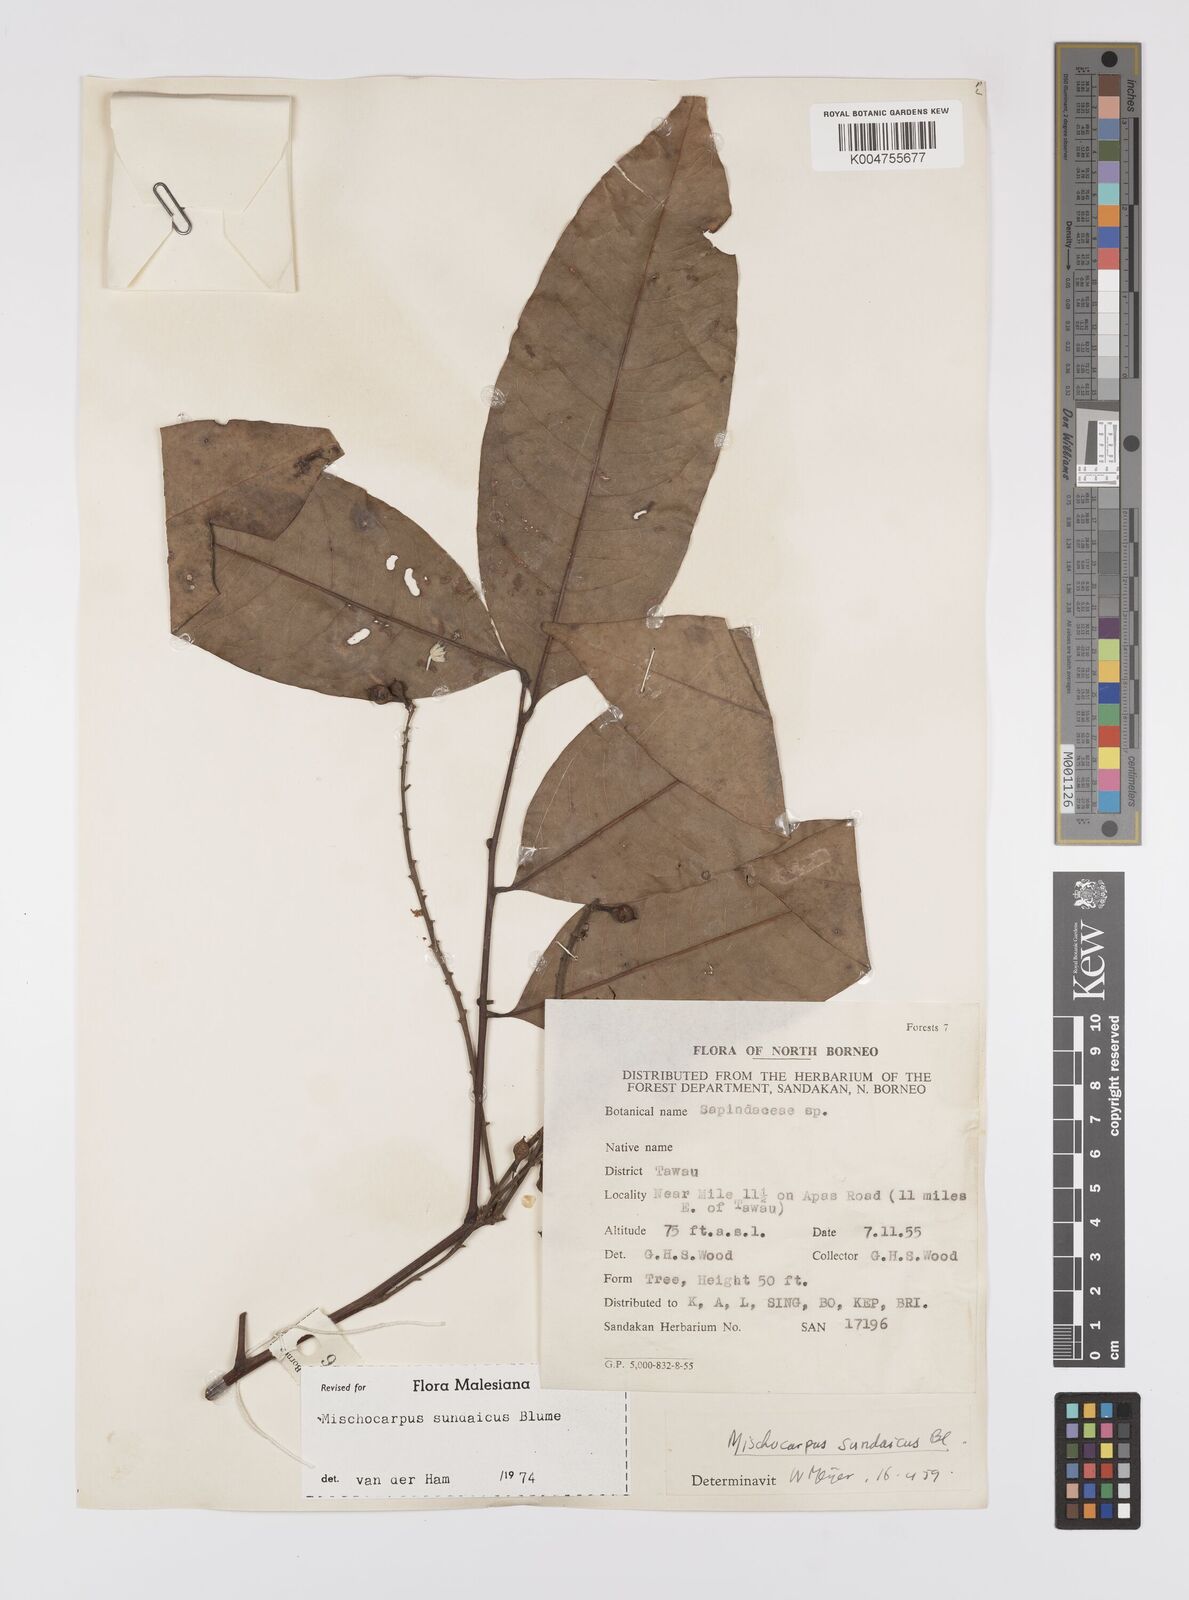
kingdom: Plantae
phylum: Tracheophyta
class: Magnoliopsida
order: Sapindales
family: Sapindaceae
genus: Mischocarpus
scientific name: Mischocarpus sundaicus
